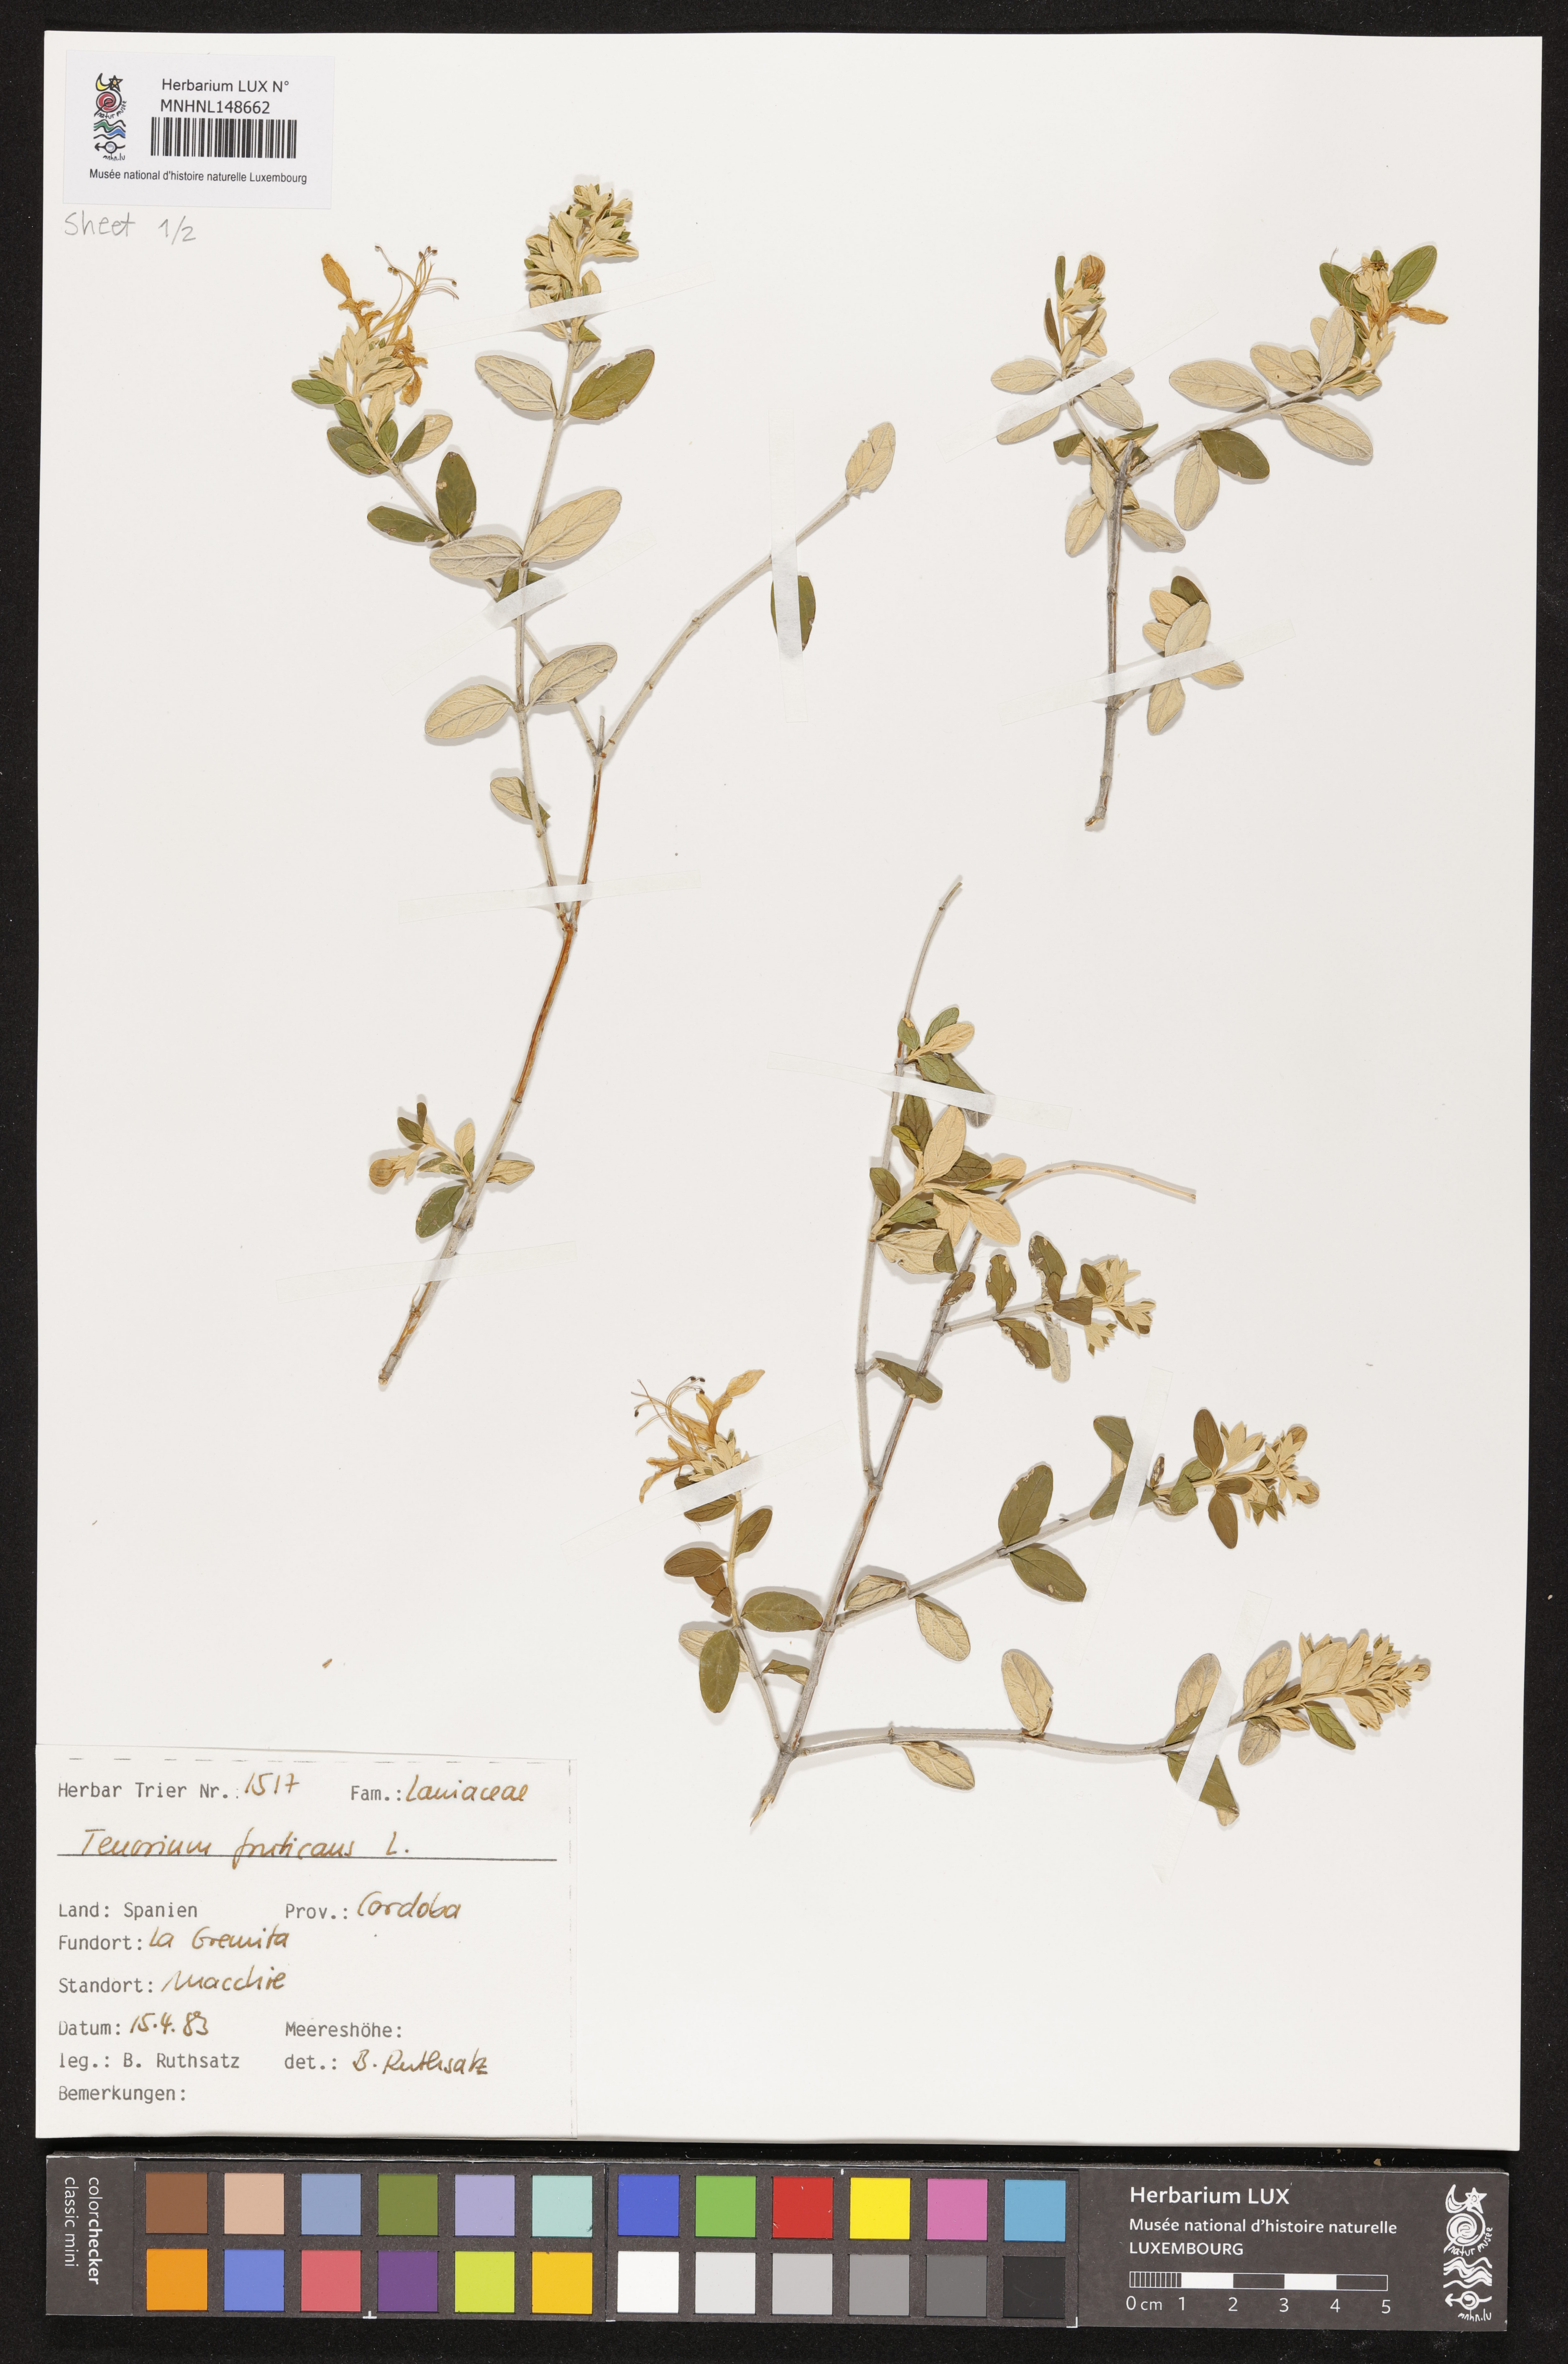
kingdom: Plantae
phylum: Tracheophyta
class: Magnoliopsida
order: Lamiales
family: Lamiaceae
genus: Teucrium
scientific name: Teucrium fruticans
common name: Shrubby germander
